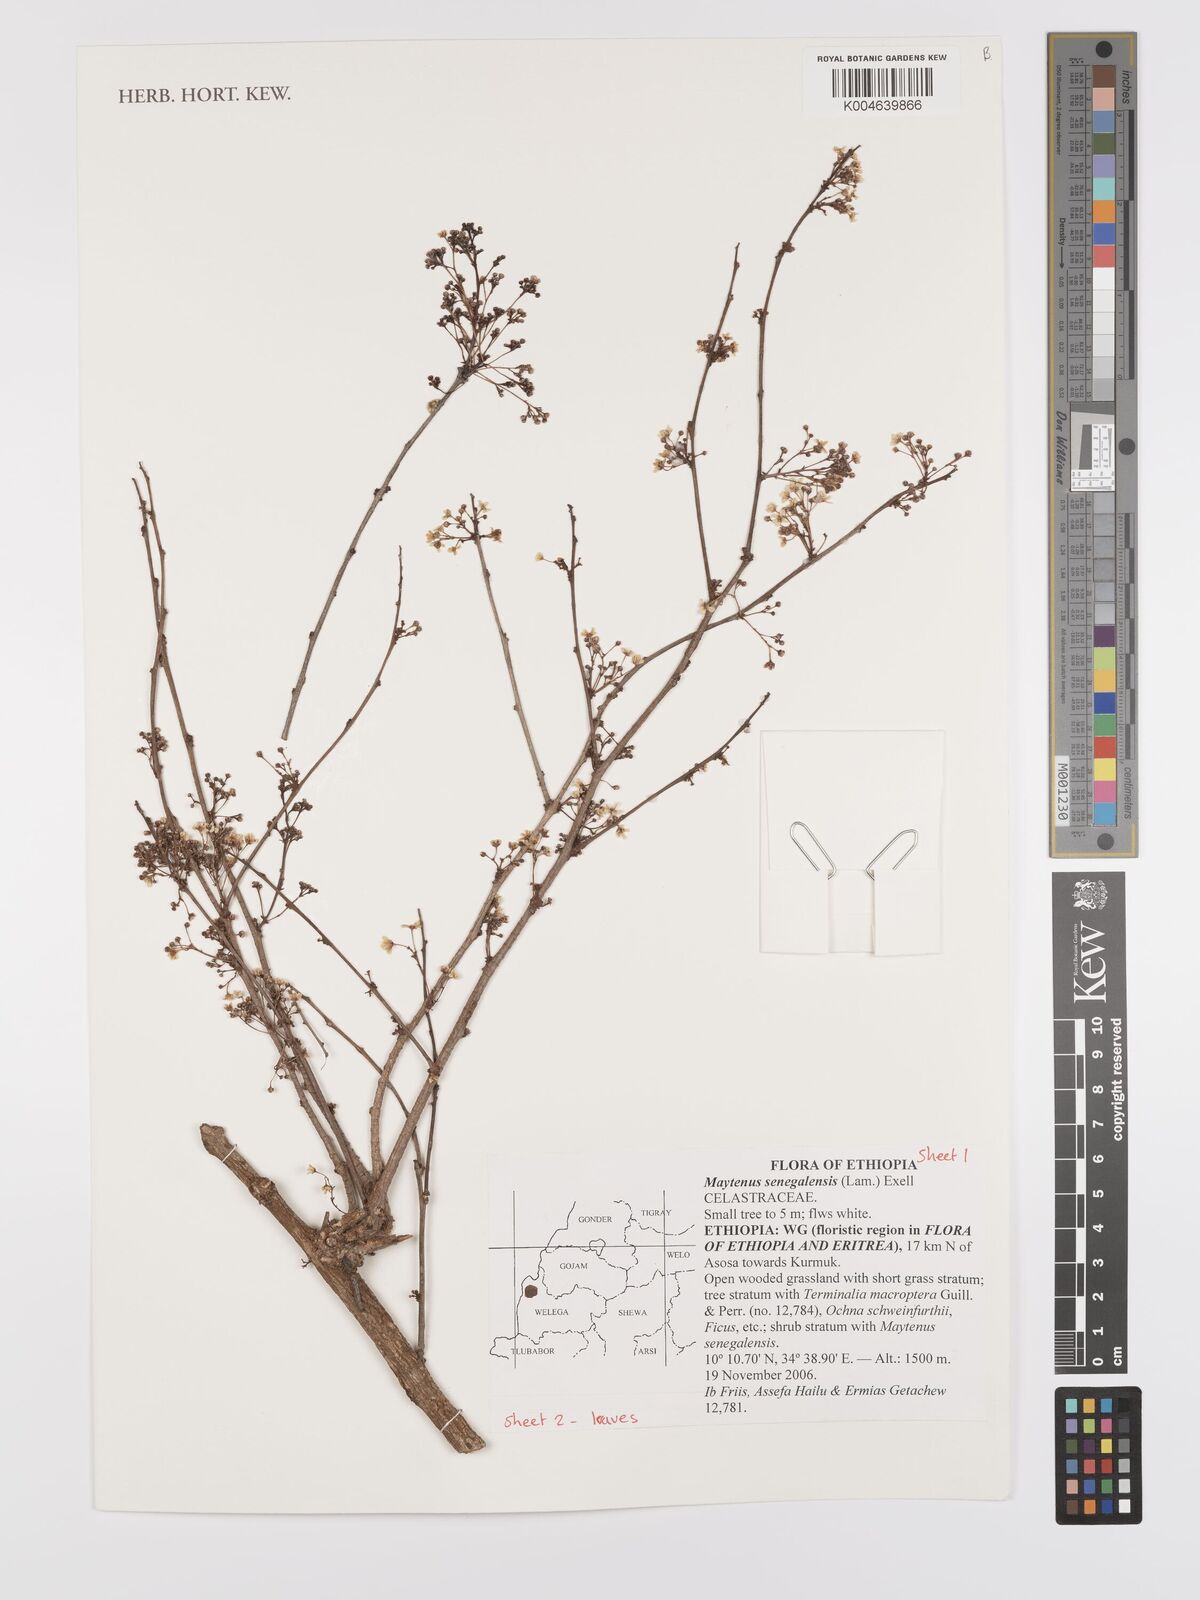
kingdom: Plantae
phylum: Tracheophyta
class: Magnoliopsida
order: Celastrales
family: Celastraceae
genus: Gymnosporia
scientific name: Gymnosporia senegalensis
